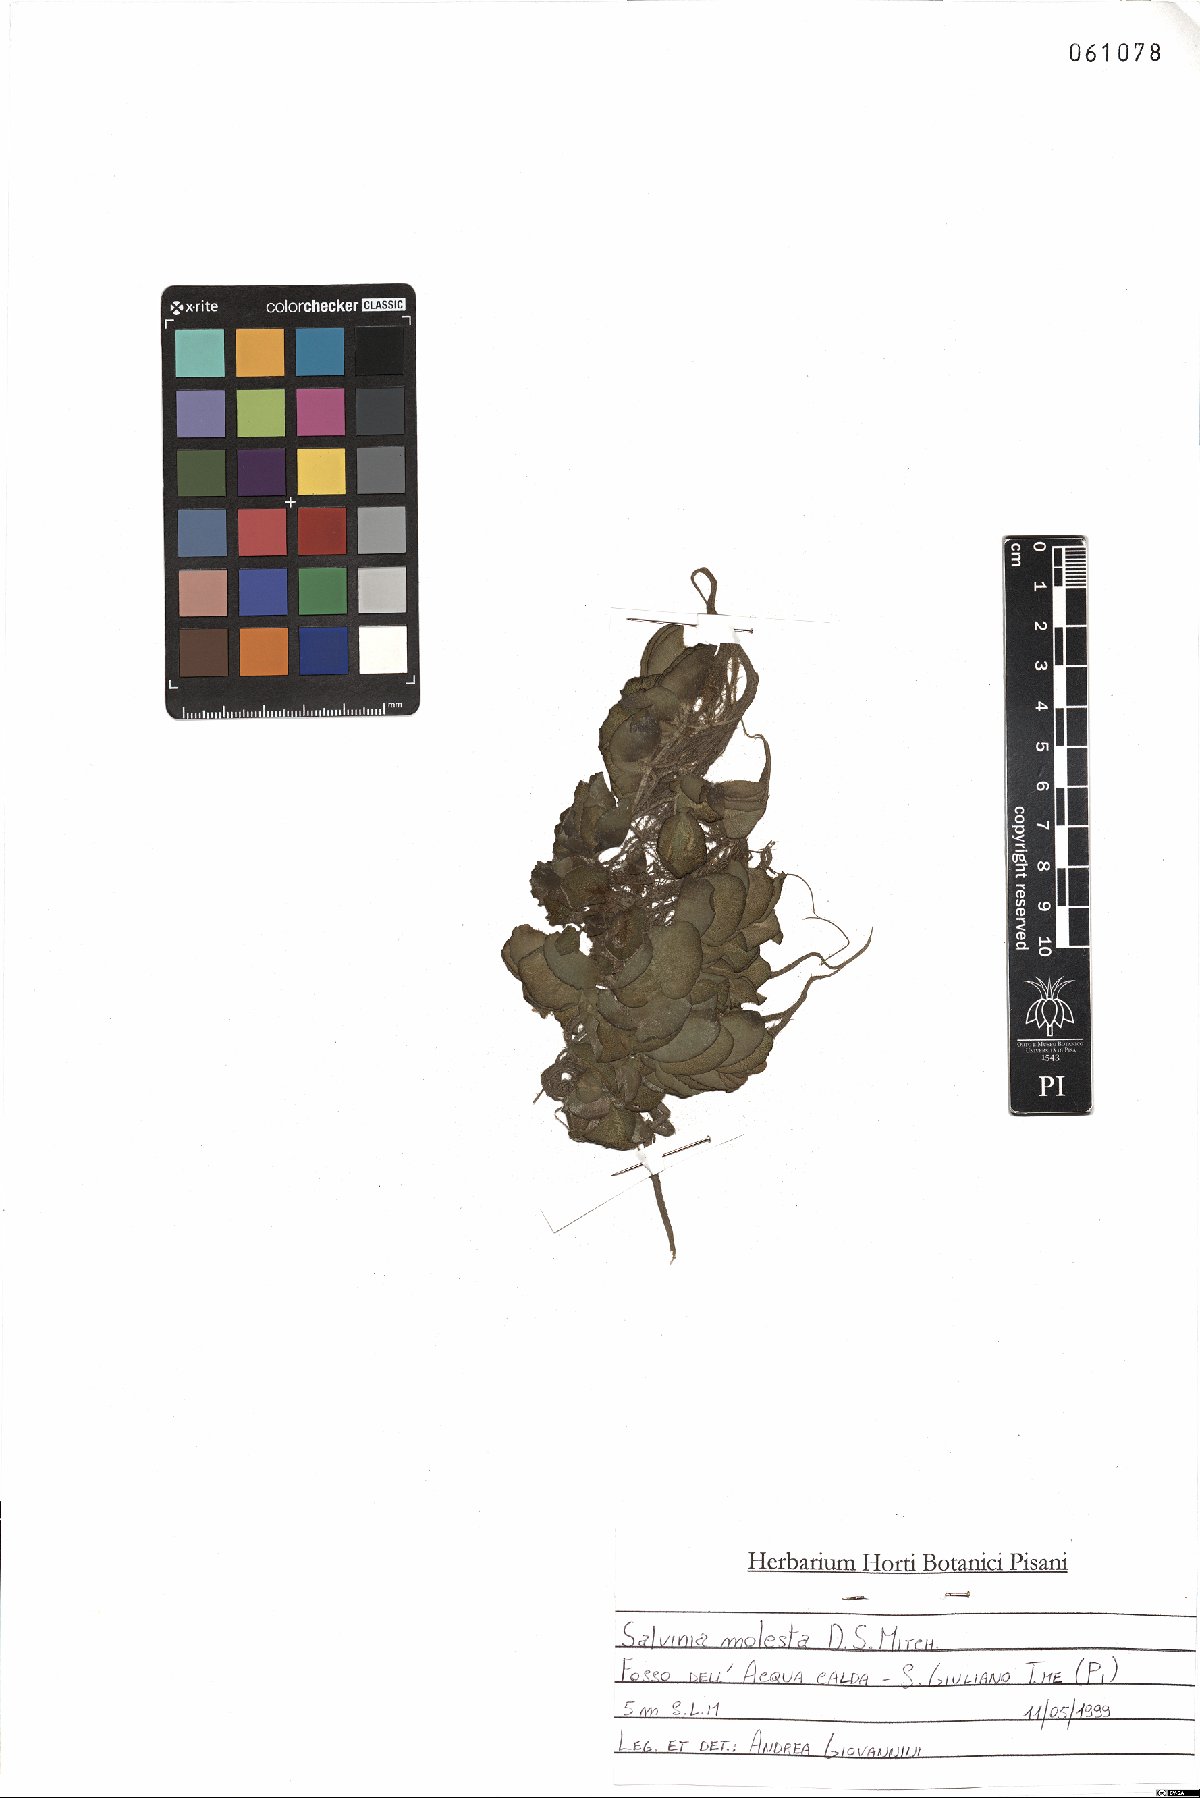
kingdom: Plantae
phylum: Tracheophyta
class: Polypodiopsida
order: Salviniales
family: Salviniaceae
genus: Salvinia
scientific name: Salvinia molesta
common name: Kariba weed
